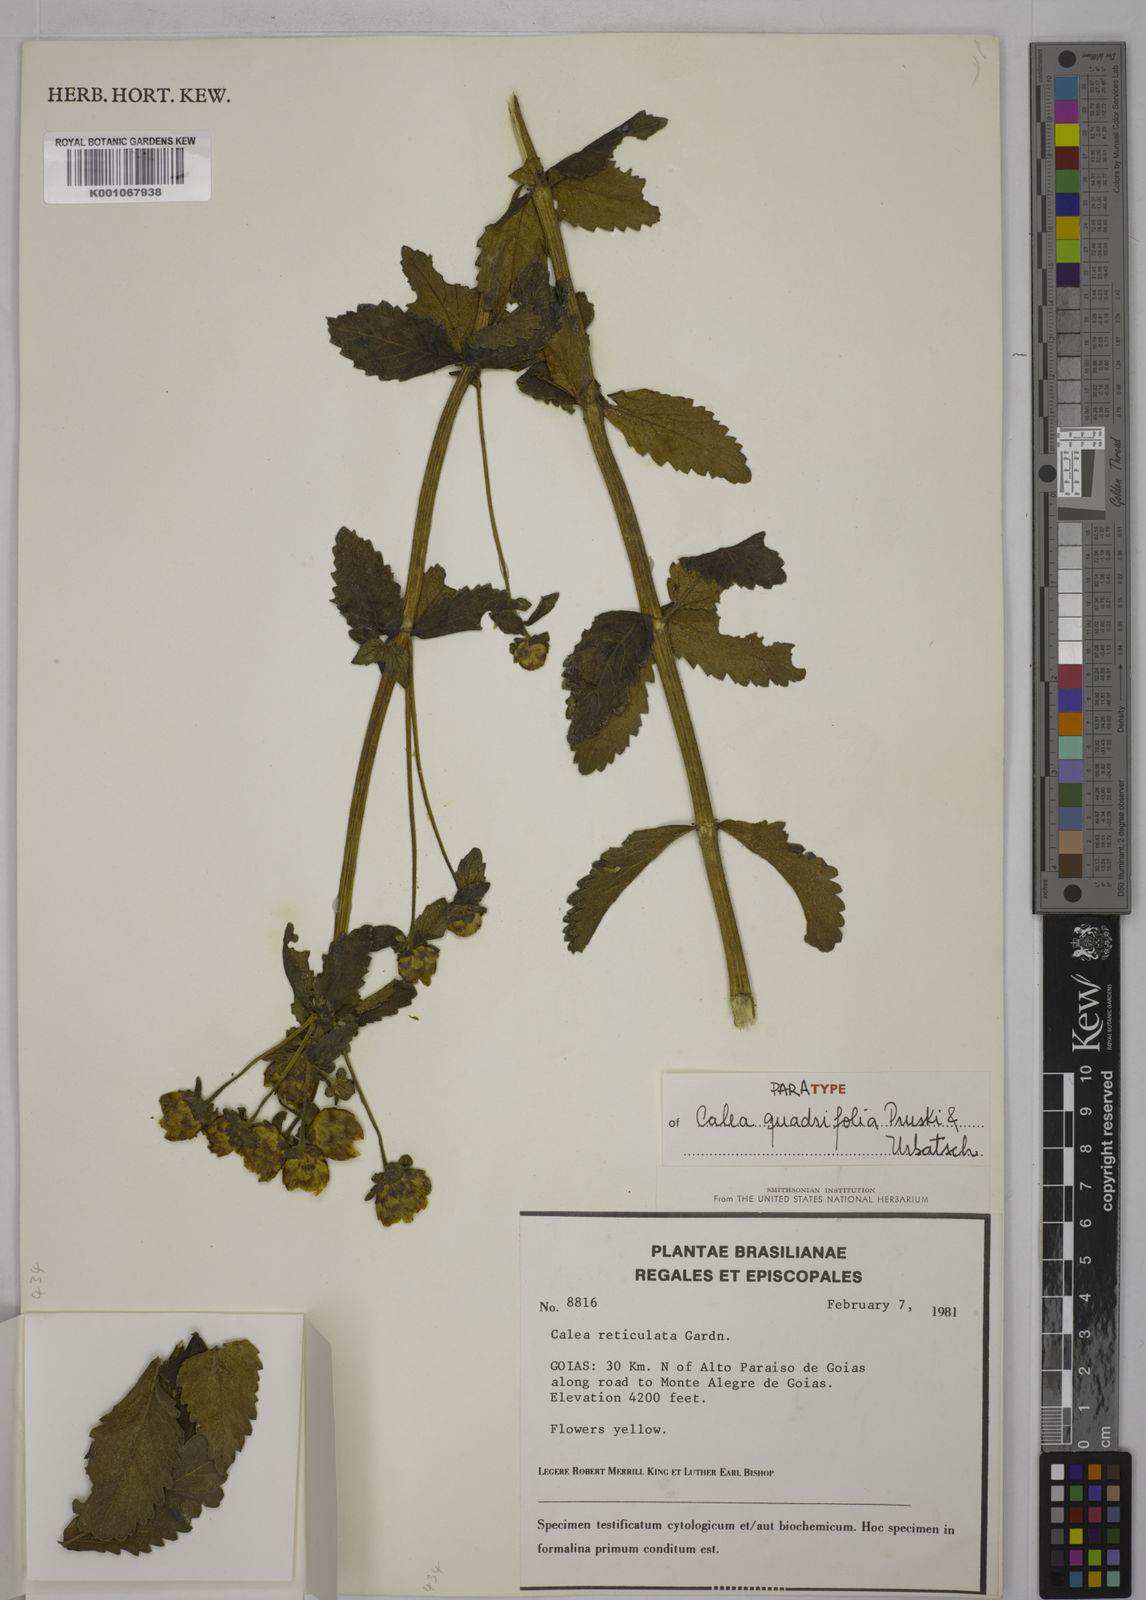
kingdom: Plantae
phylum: Tracheophyta
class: Magnoliopsida
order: Asterales
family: Asteraceae
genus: Calea
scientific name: Calea quadrifolia
